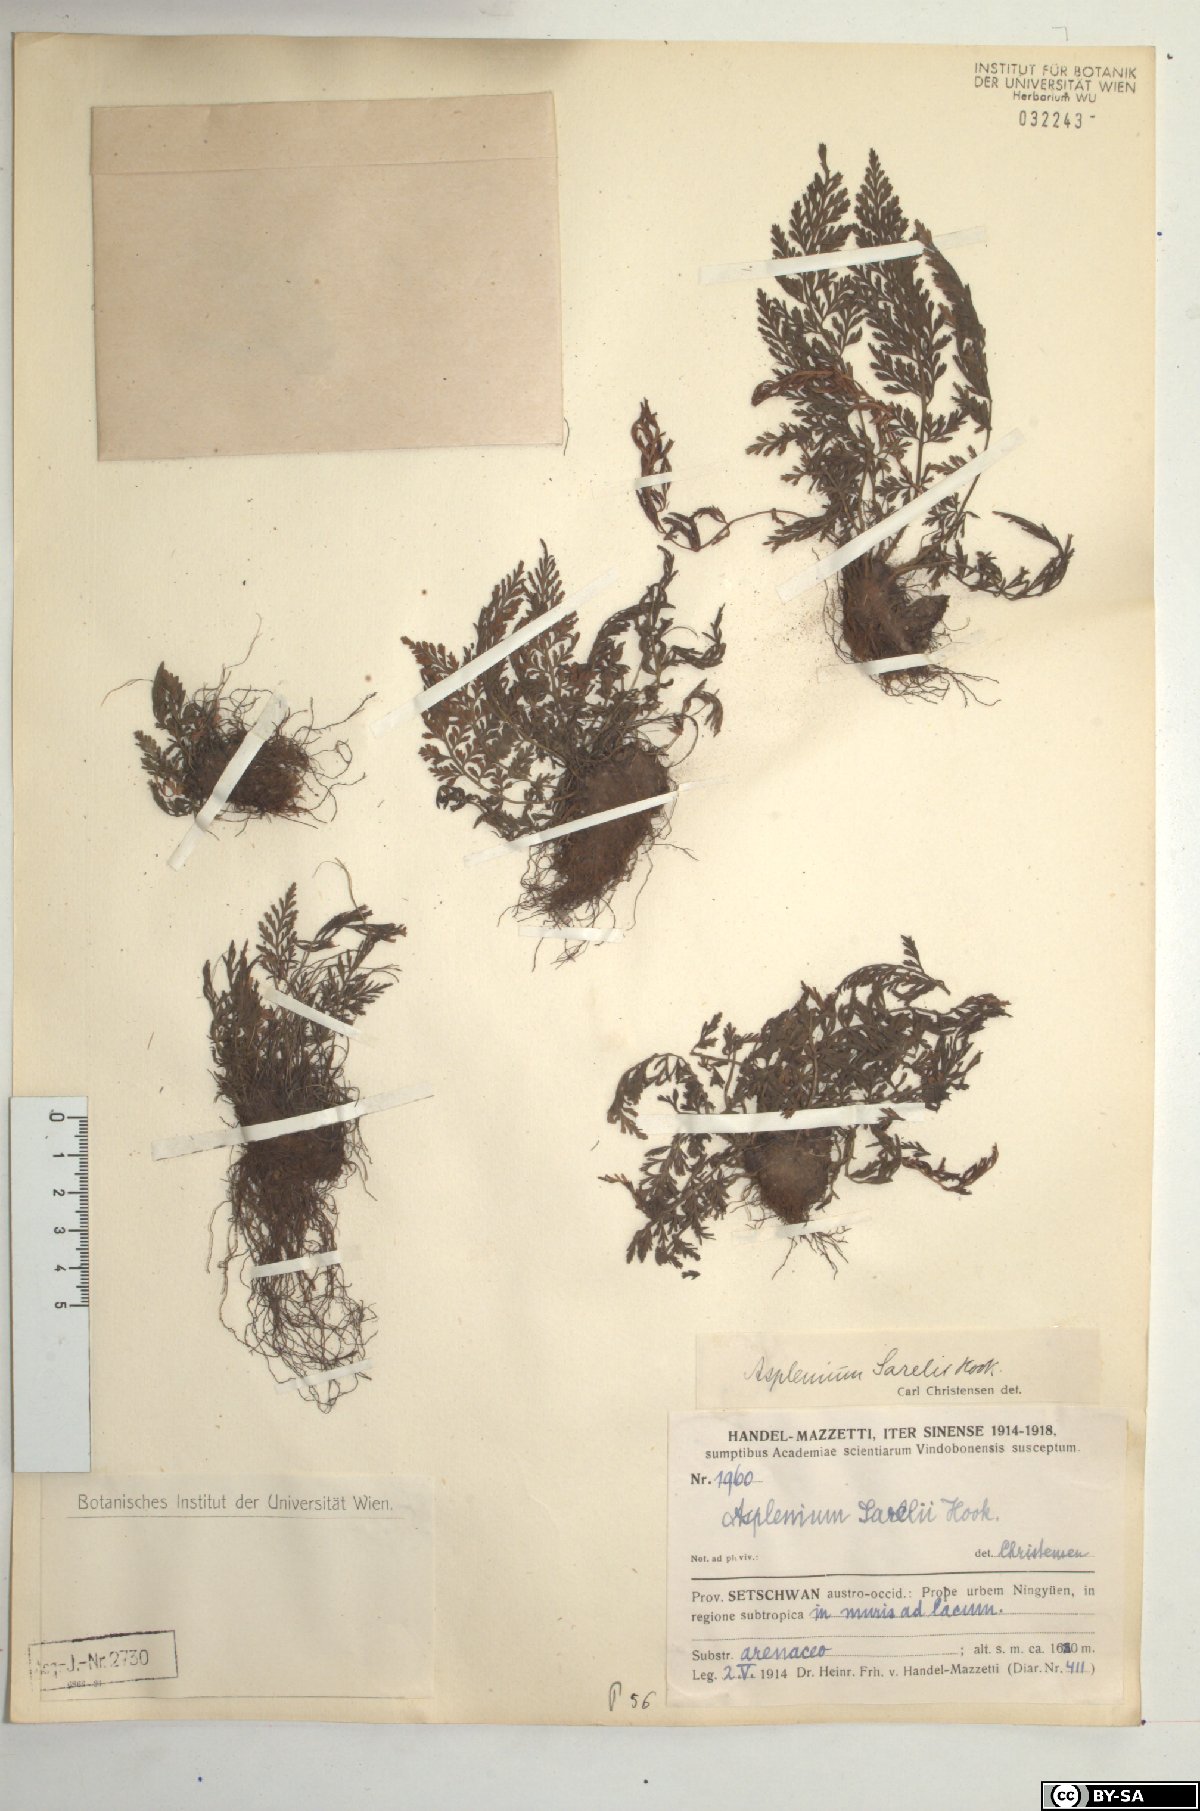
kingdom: Plantae
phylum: Tracheophyta
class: Polypodiopsida
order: Polypodiales
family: Aspleniaceae
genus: Asplenium
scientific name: Asplenium sarelii
